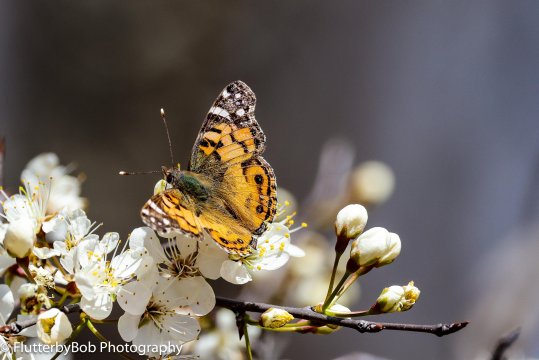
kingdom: Animalia
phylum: Arthropoda
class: Insecta
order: Lepidoptera
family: Nymphalidae
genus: Vanessa
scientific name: Vanessa virginiensis
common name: American Lady
